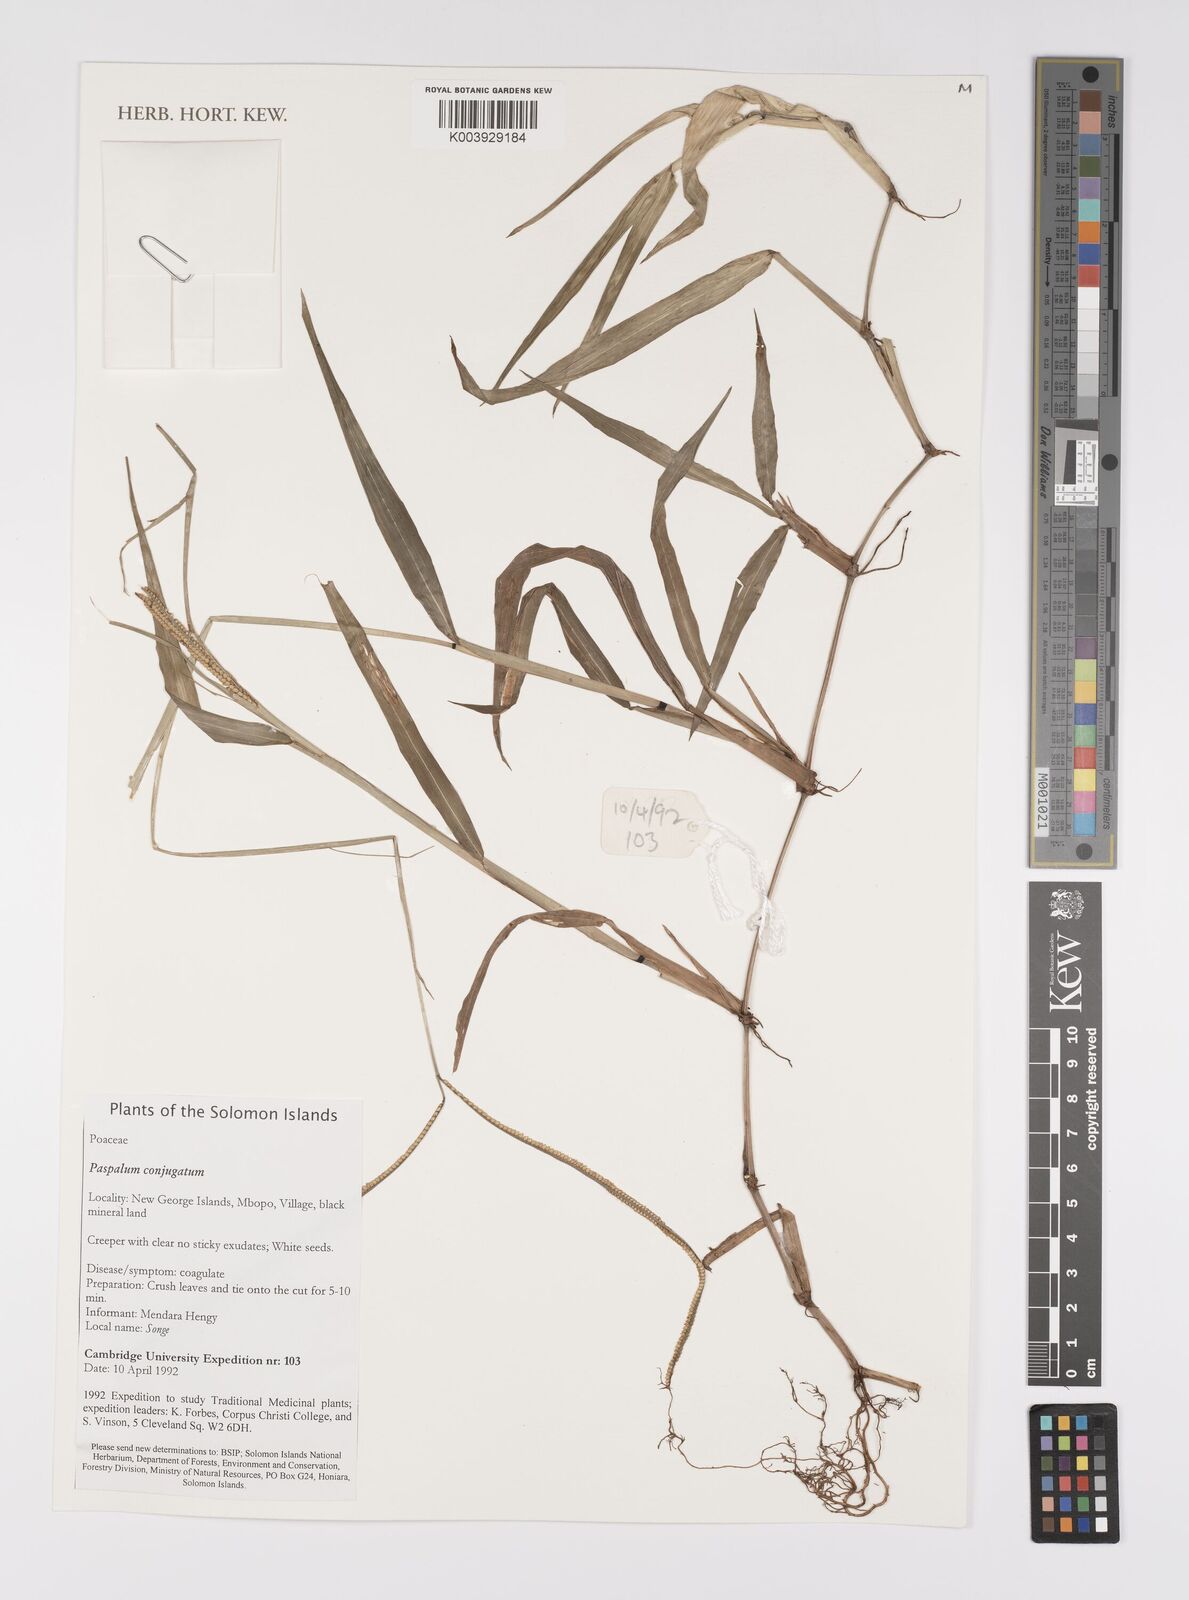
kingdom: Plantae
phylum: Tracheophyta
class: Liliopsida
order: Poales
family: Poaceae
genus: Paspalum
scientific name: Paspalum conjugatum
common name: Hilograss
